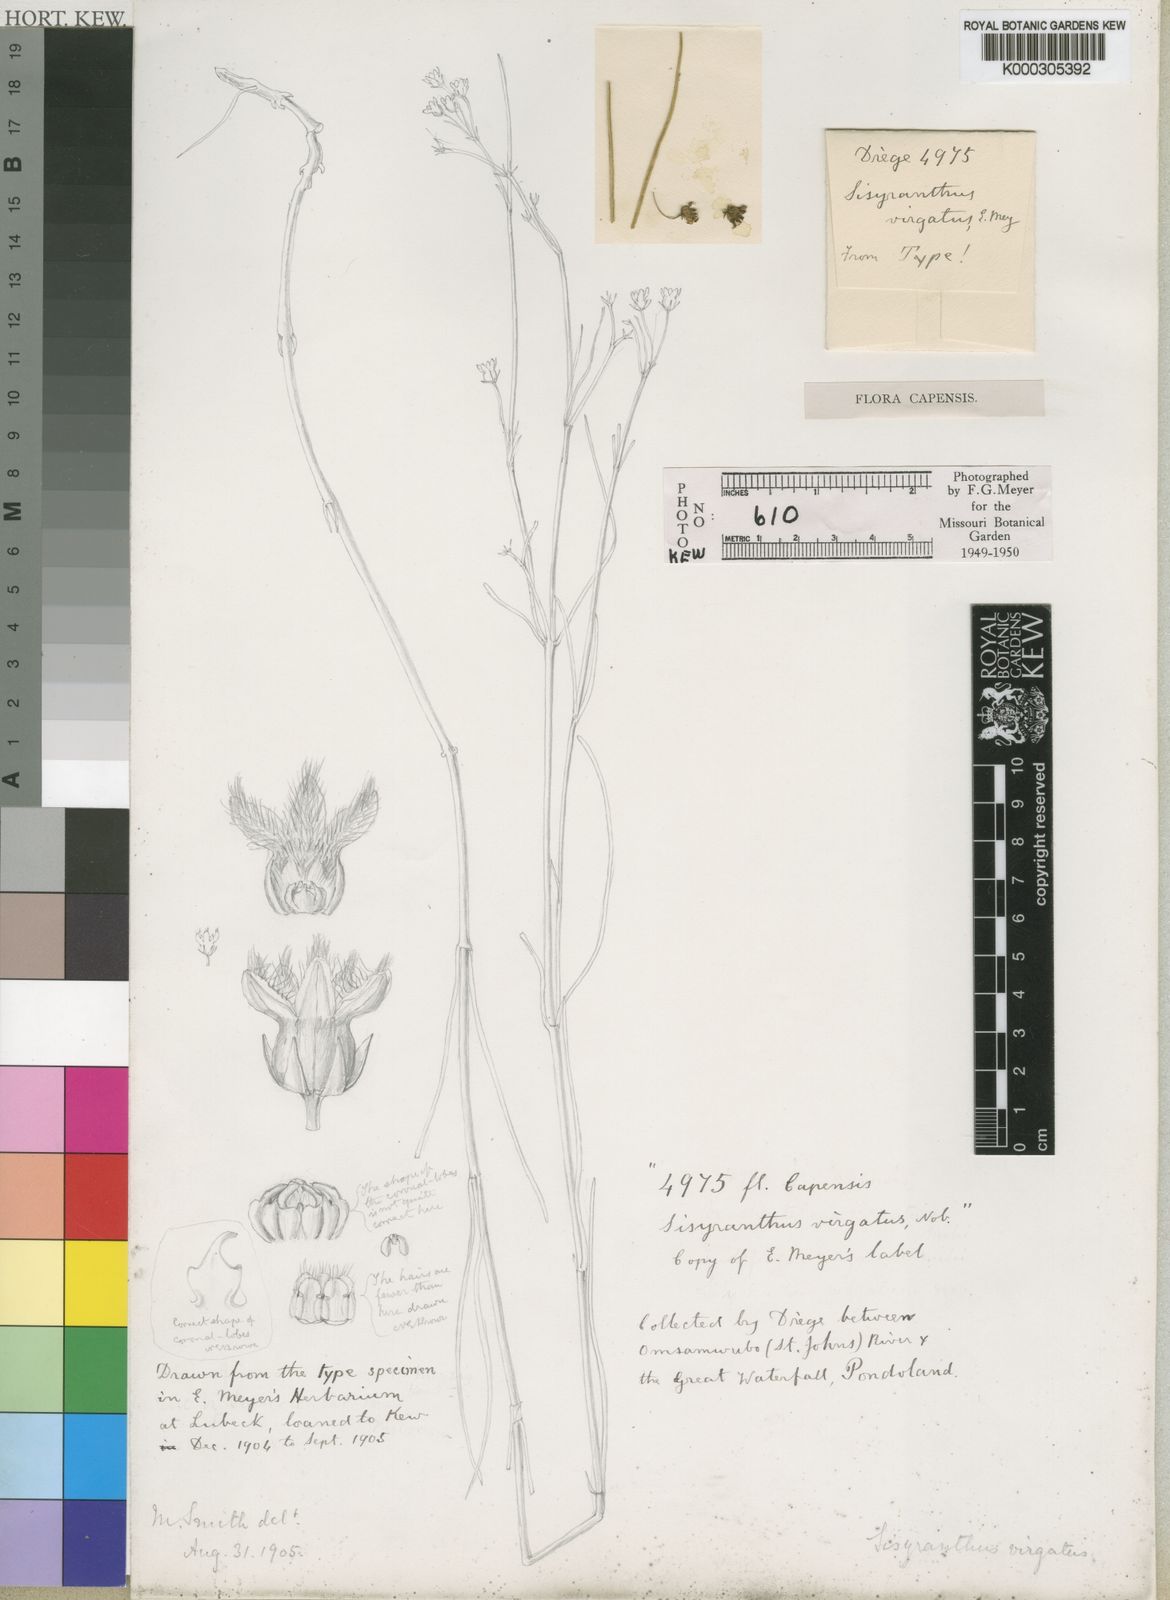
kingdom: Plantae
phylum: Tracheophyta
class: Magnoliopsida
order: Gentianales
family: Apocynaceae
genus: Sisyranthus
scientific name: Sisyranthus virgatus
